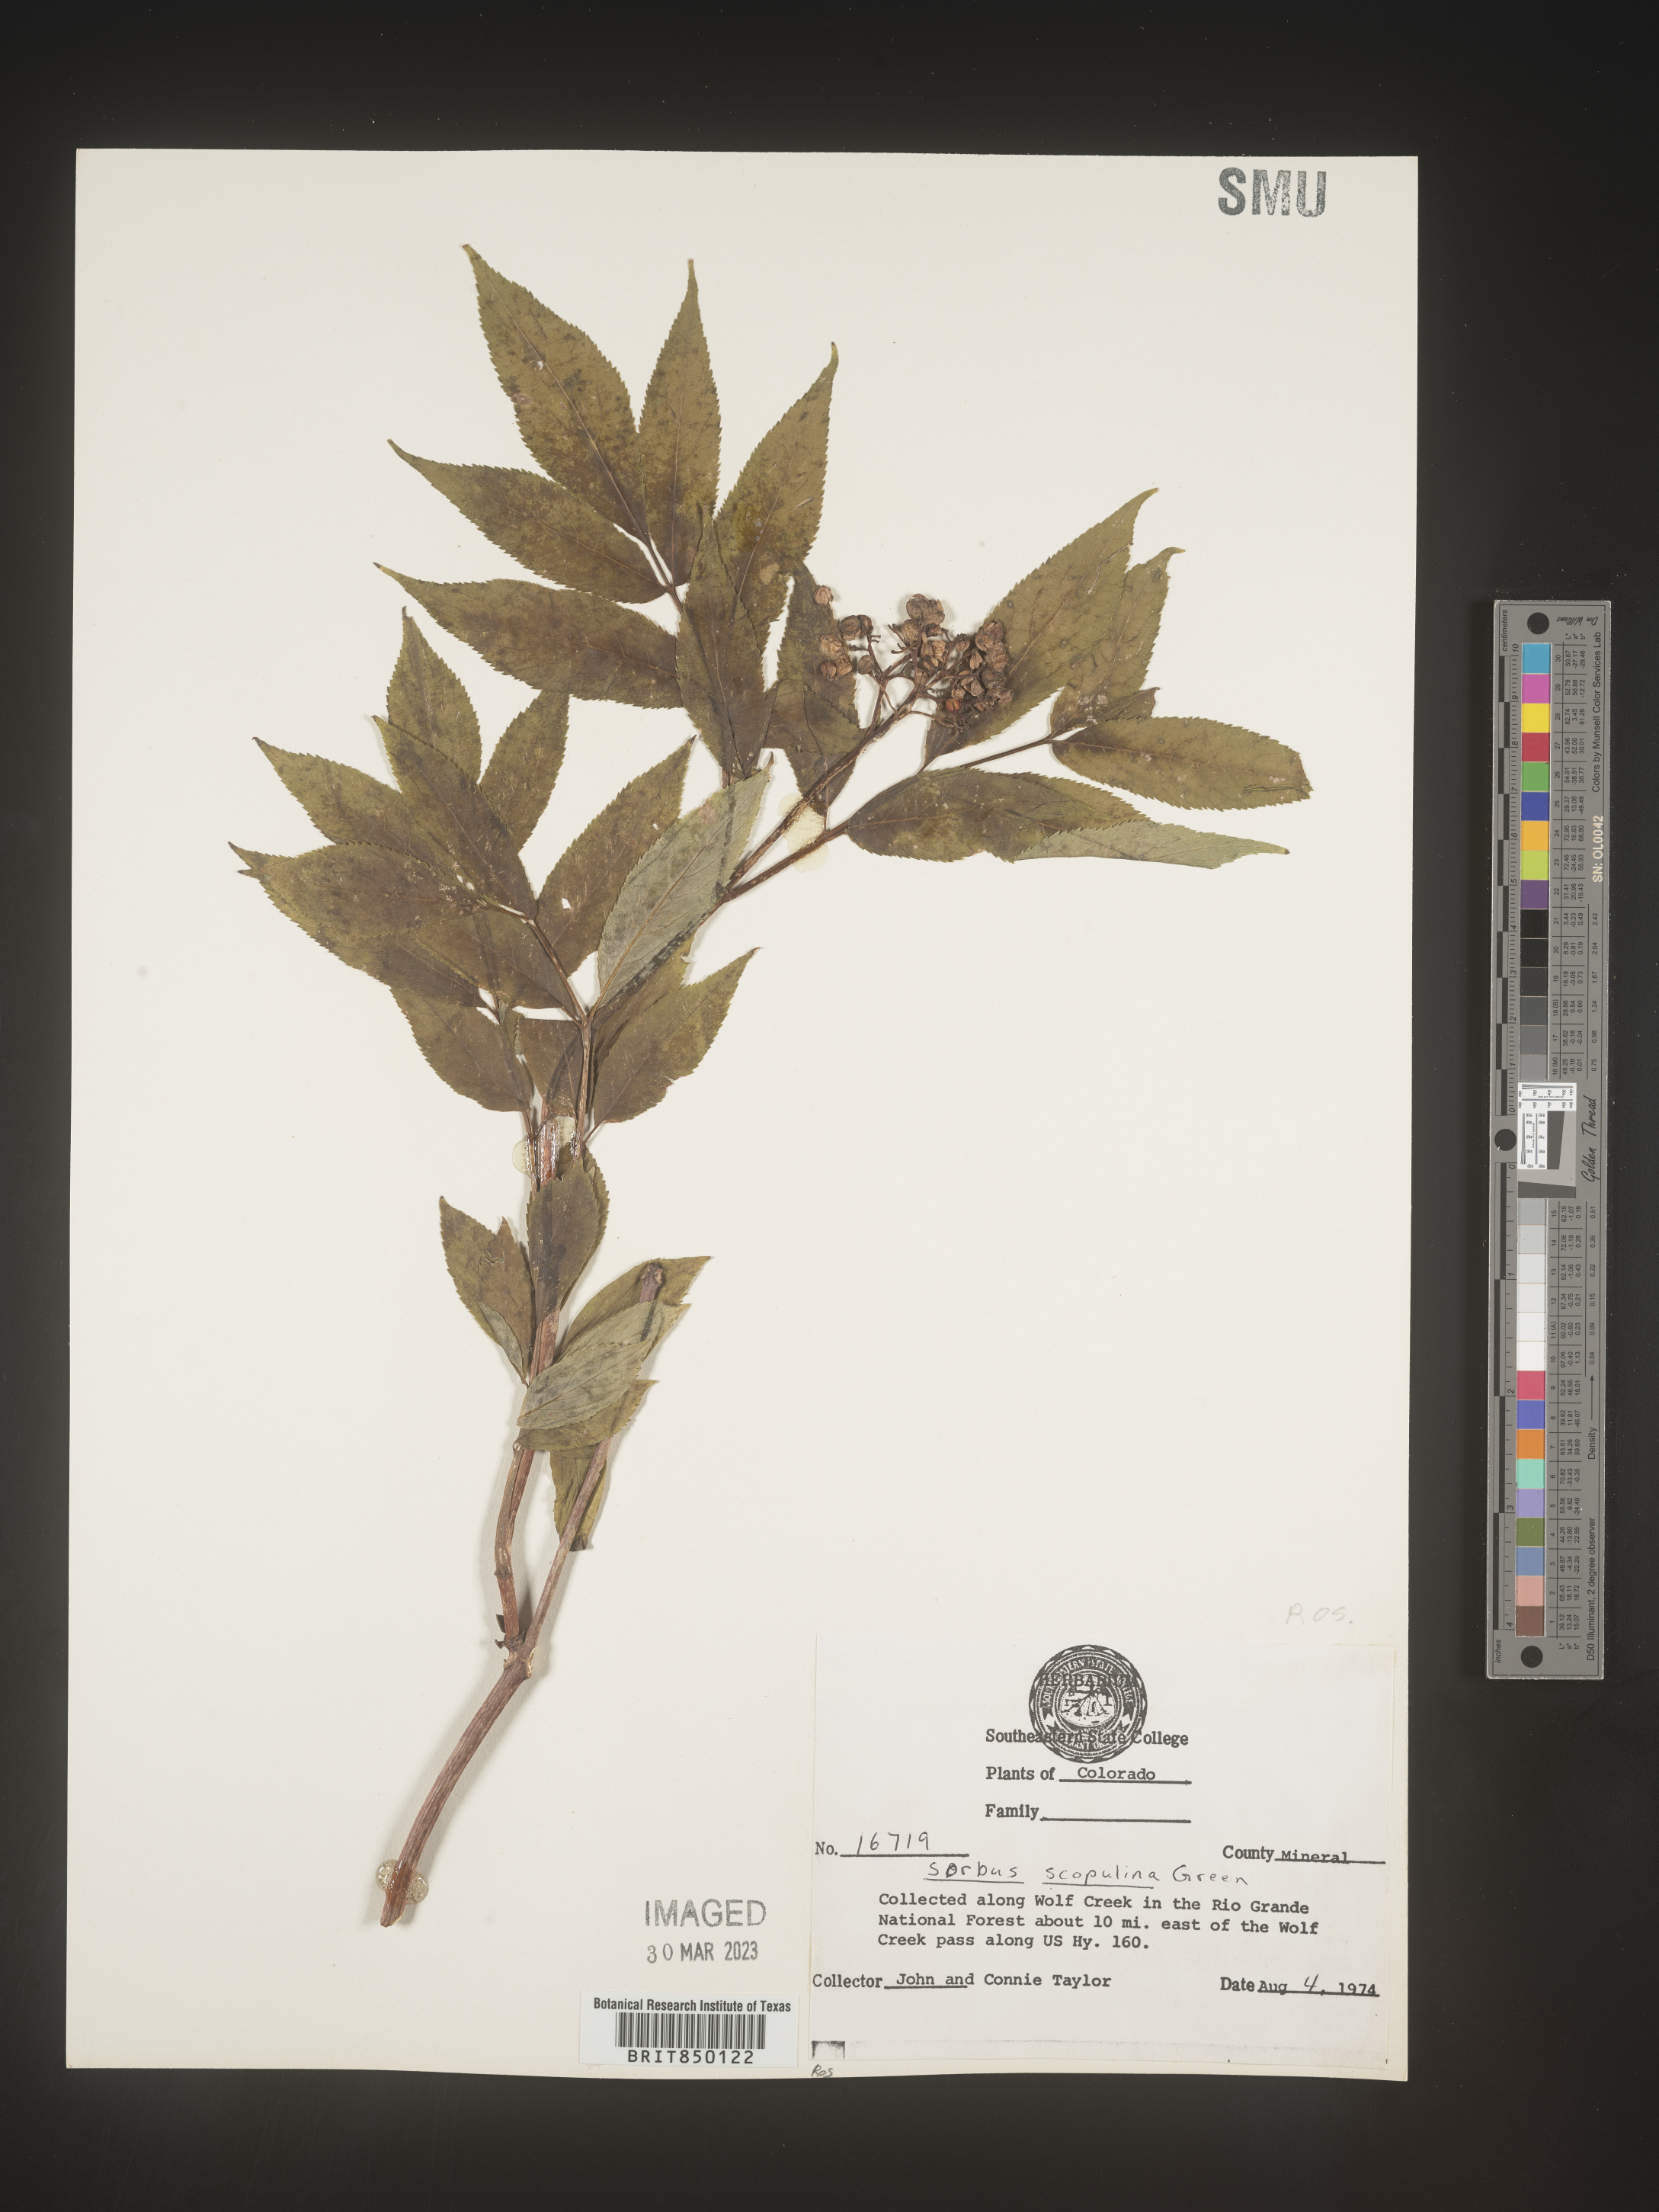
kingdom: Plantae
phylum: Tracheophyta
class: Magnoliopsida
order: Rosales
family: Rosaceae
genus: Sorbus
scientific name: Sorbus scopulina
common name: Greene's mountain-ash
